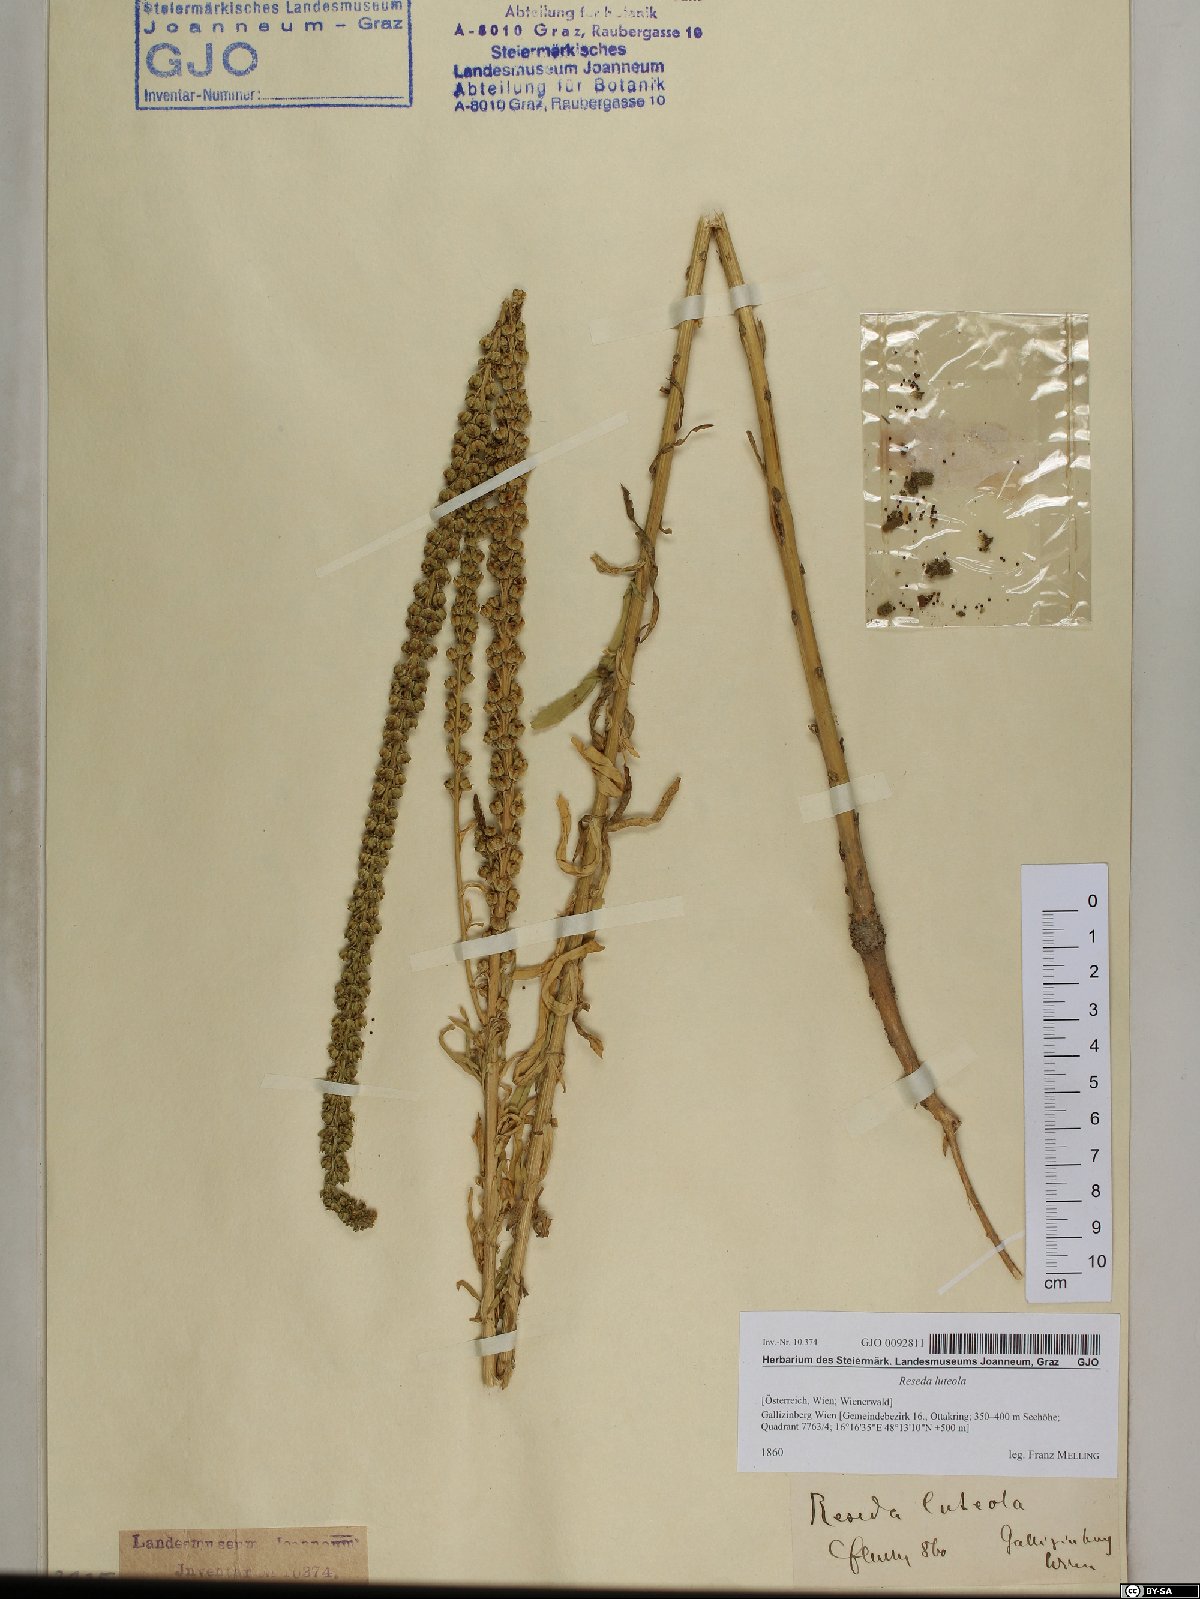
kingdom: Plantae
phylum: Tracheophyta
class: Magnoliopsida
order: Brassicales
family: Resedaceae
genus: Reseda
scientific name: Reseda luteola
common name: Weld
